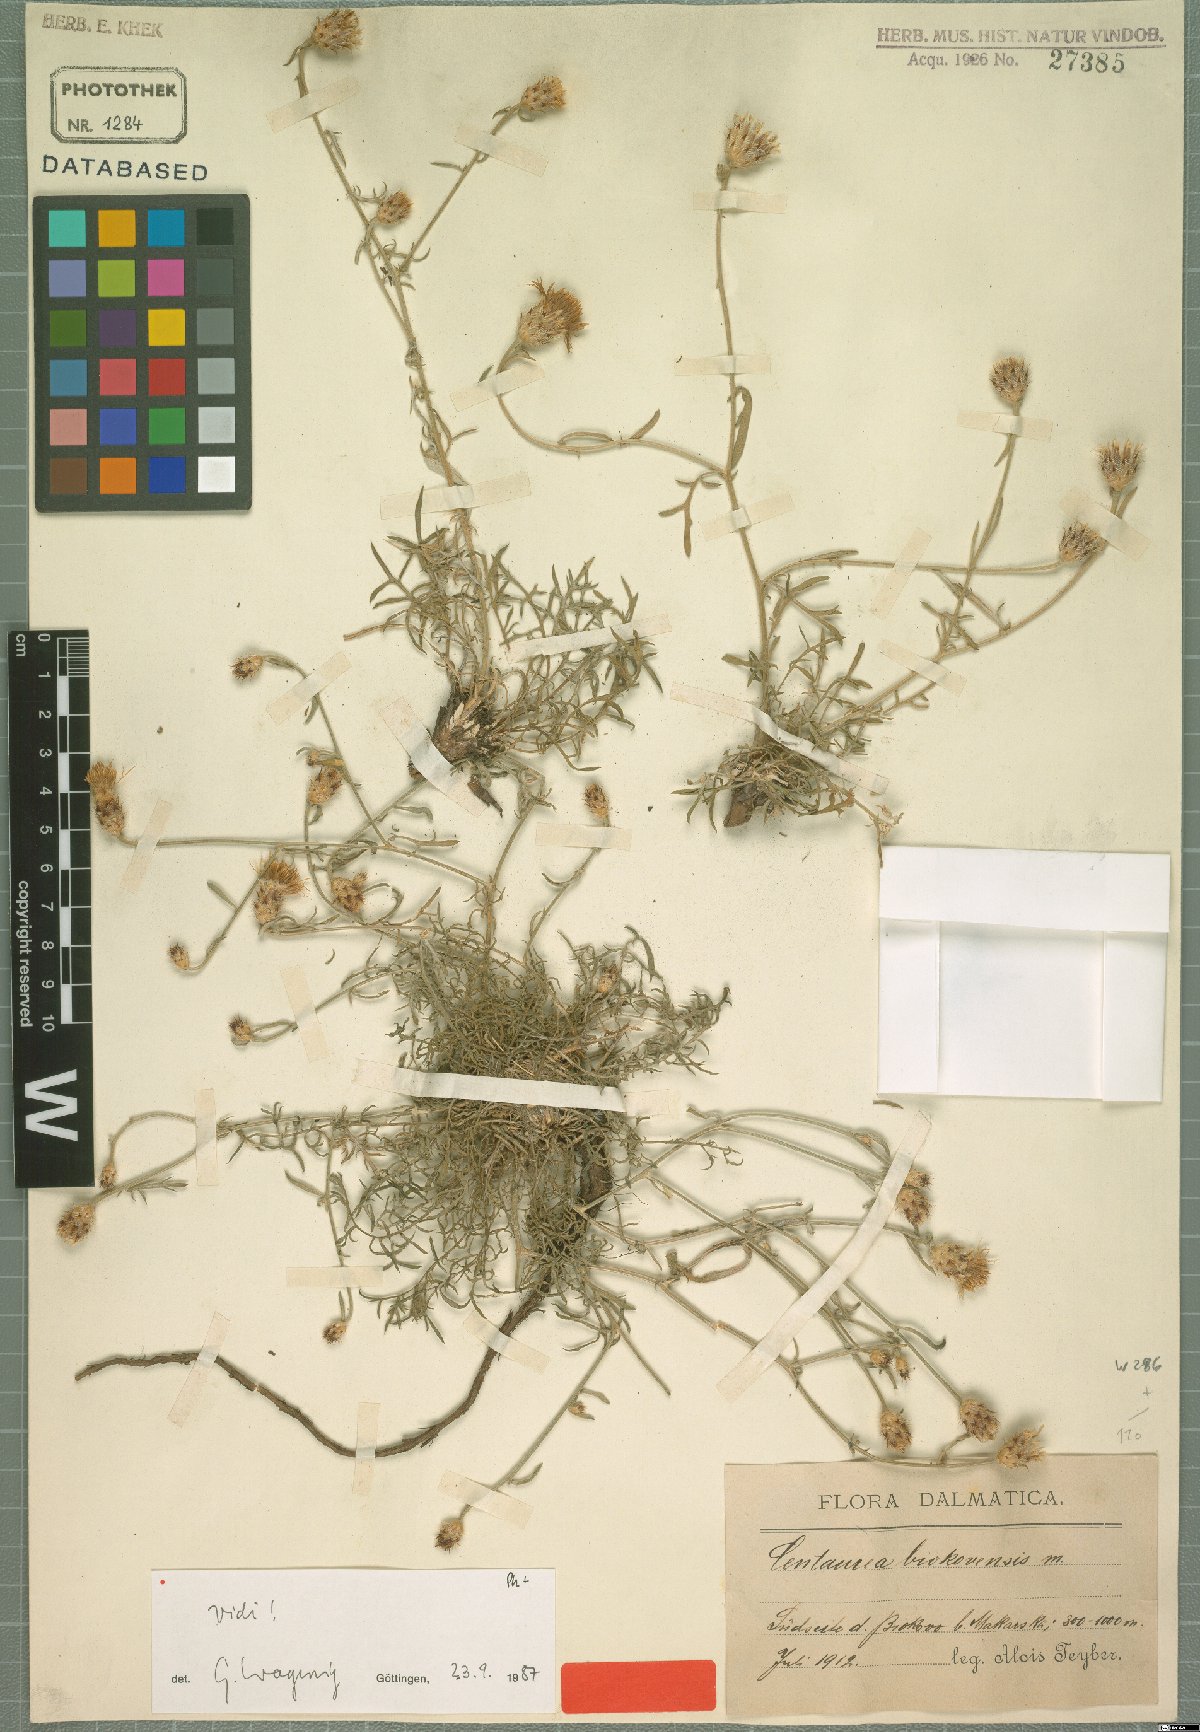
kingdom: Plantae
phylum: Tracheophyta
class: Magnoliopsida
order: Asterales
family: Asteraceae
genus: Centaurea
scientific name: Centaurea biokovensis
